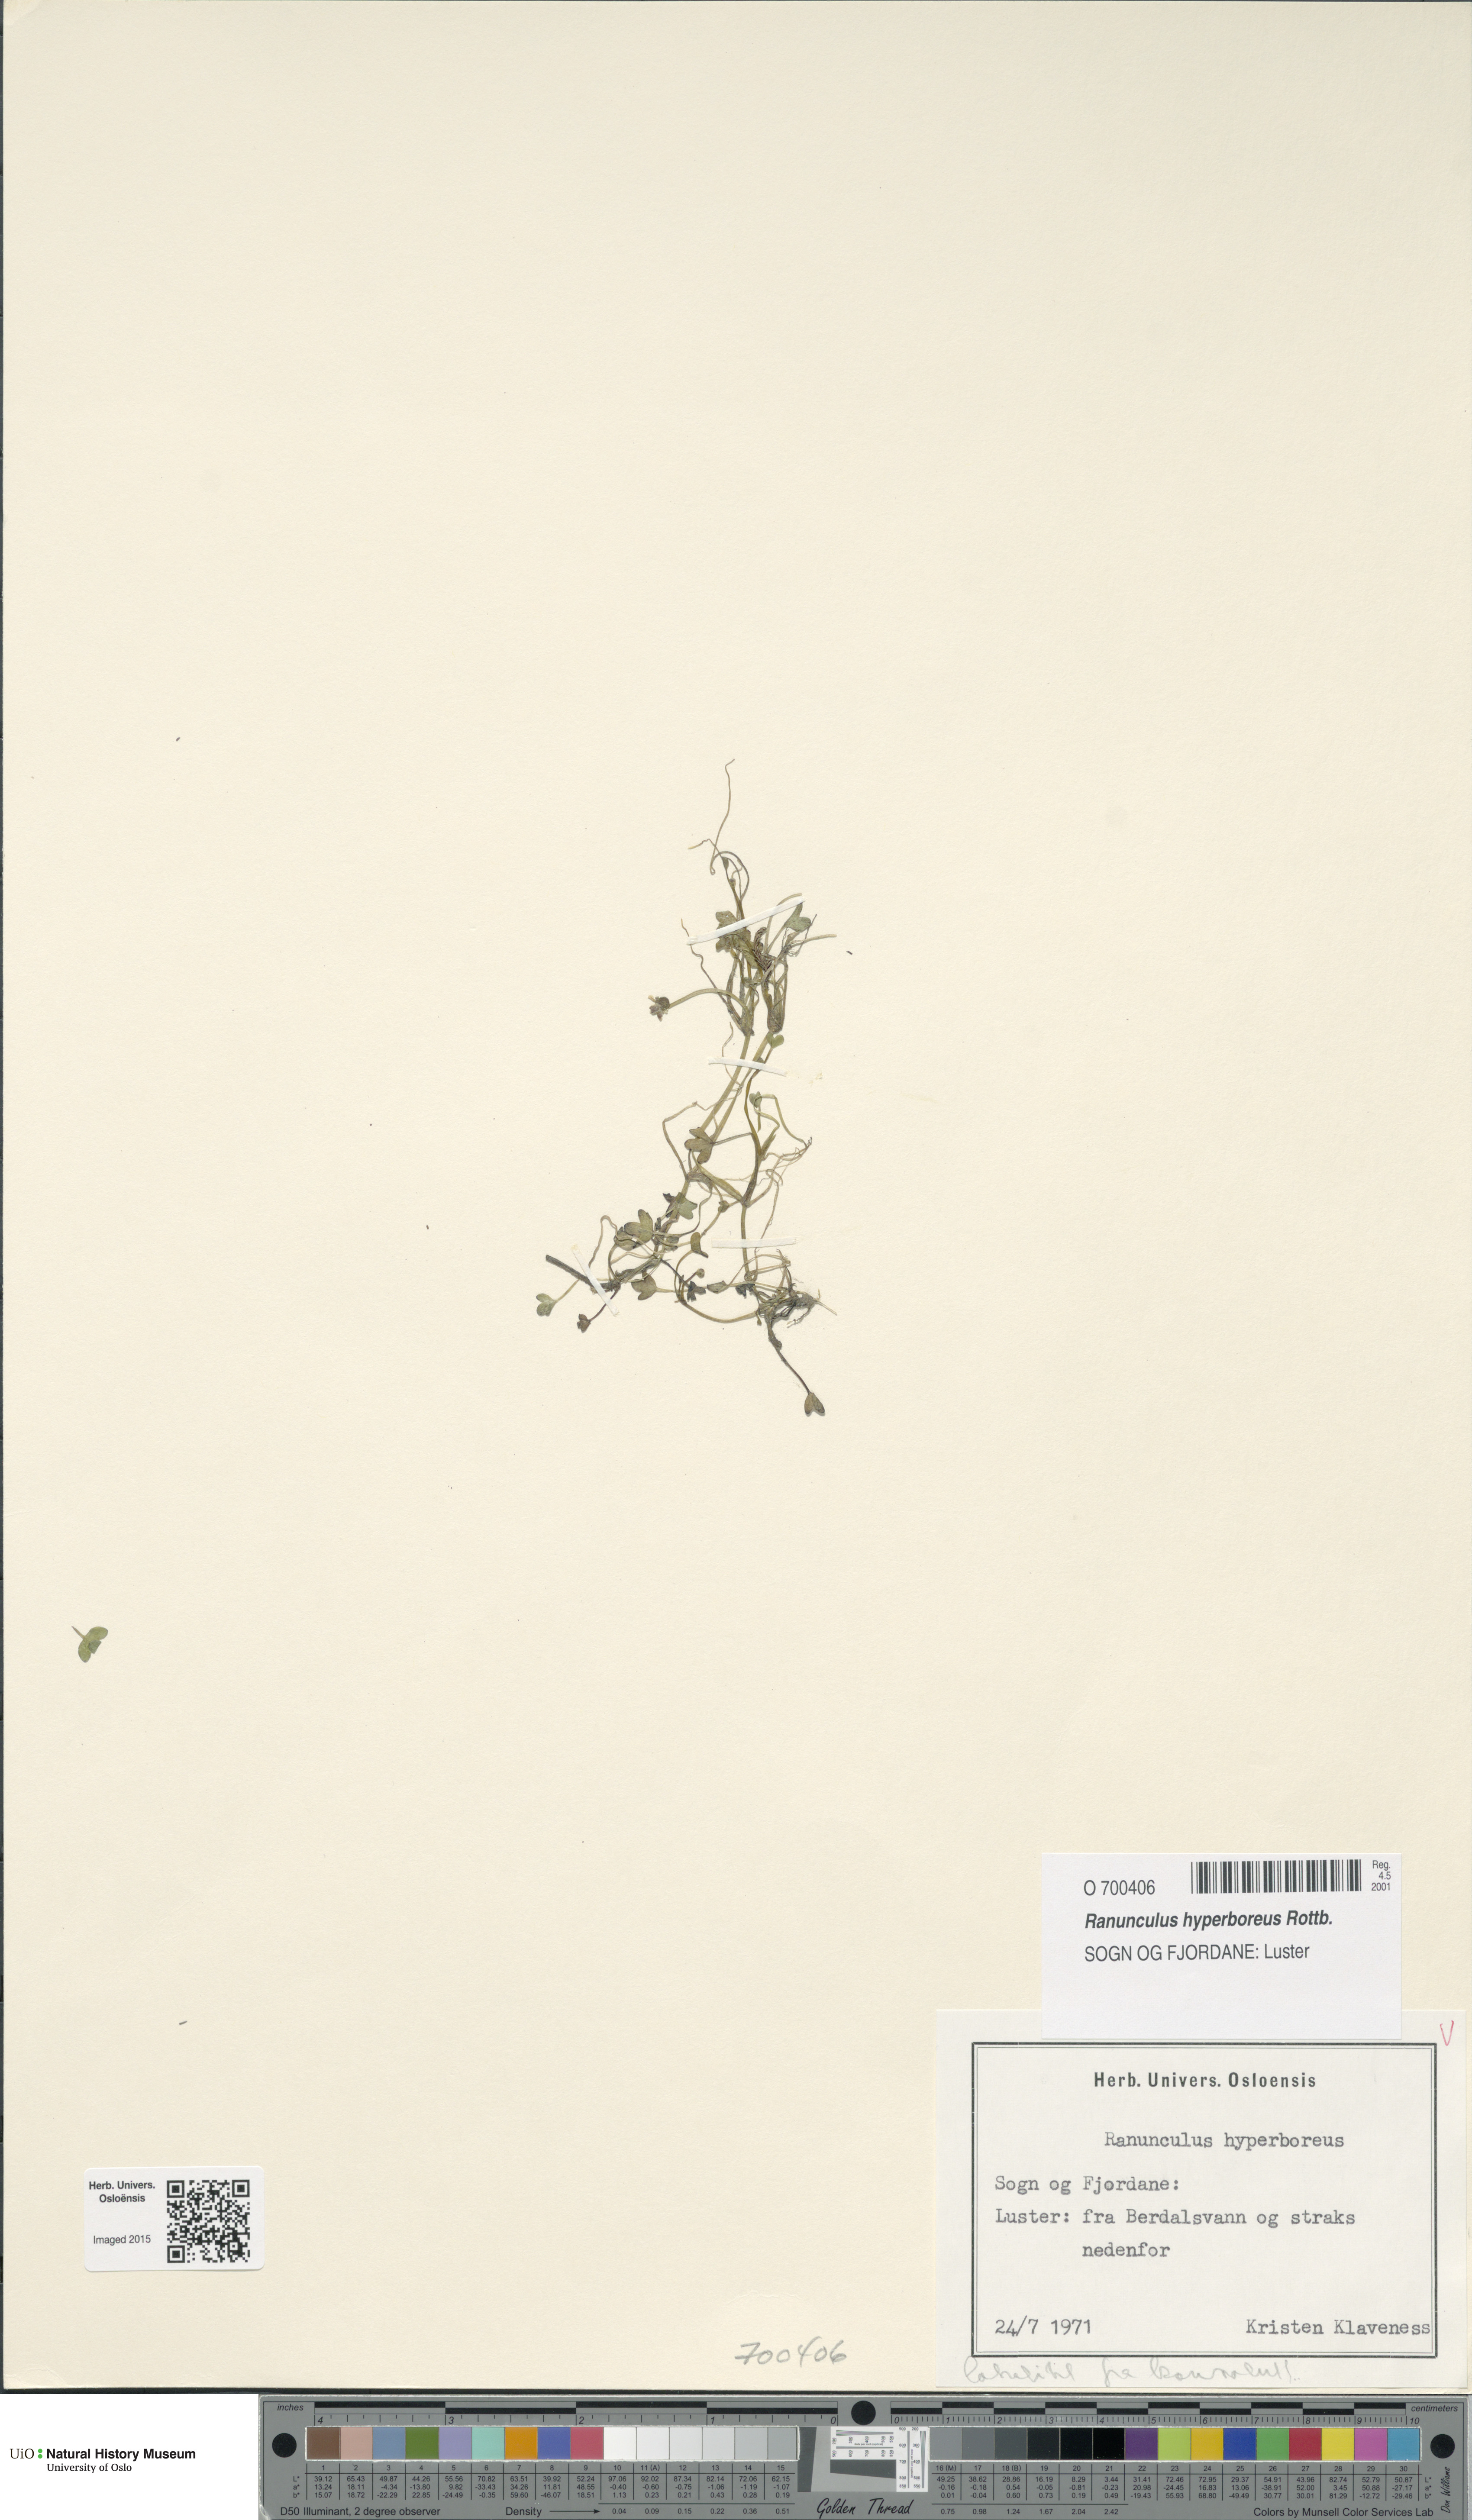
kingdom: Plantae
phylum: Tracheophyta
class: Magnoliopsida
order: Ranunculales
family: Ranunculaceae
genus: Ranunculus
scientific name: Ranunculus hyperboreus
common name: Arctic buttercup
